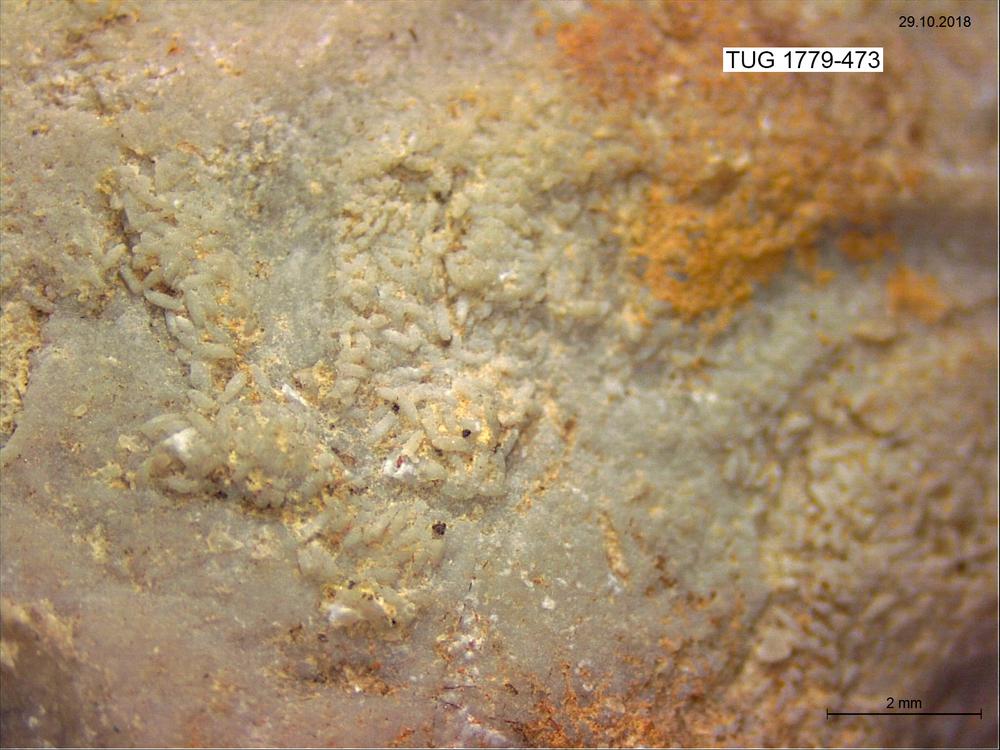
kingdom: Animalia
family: Coprulidae
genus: Coprulus
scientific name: Coprulus
